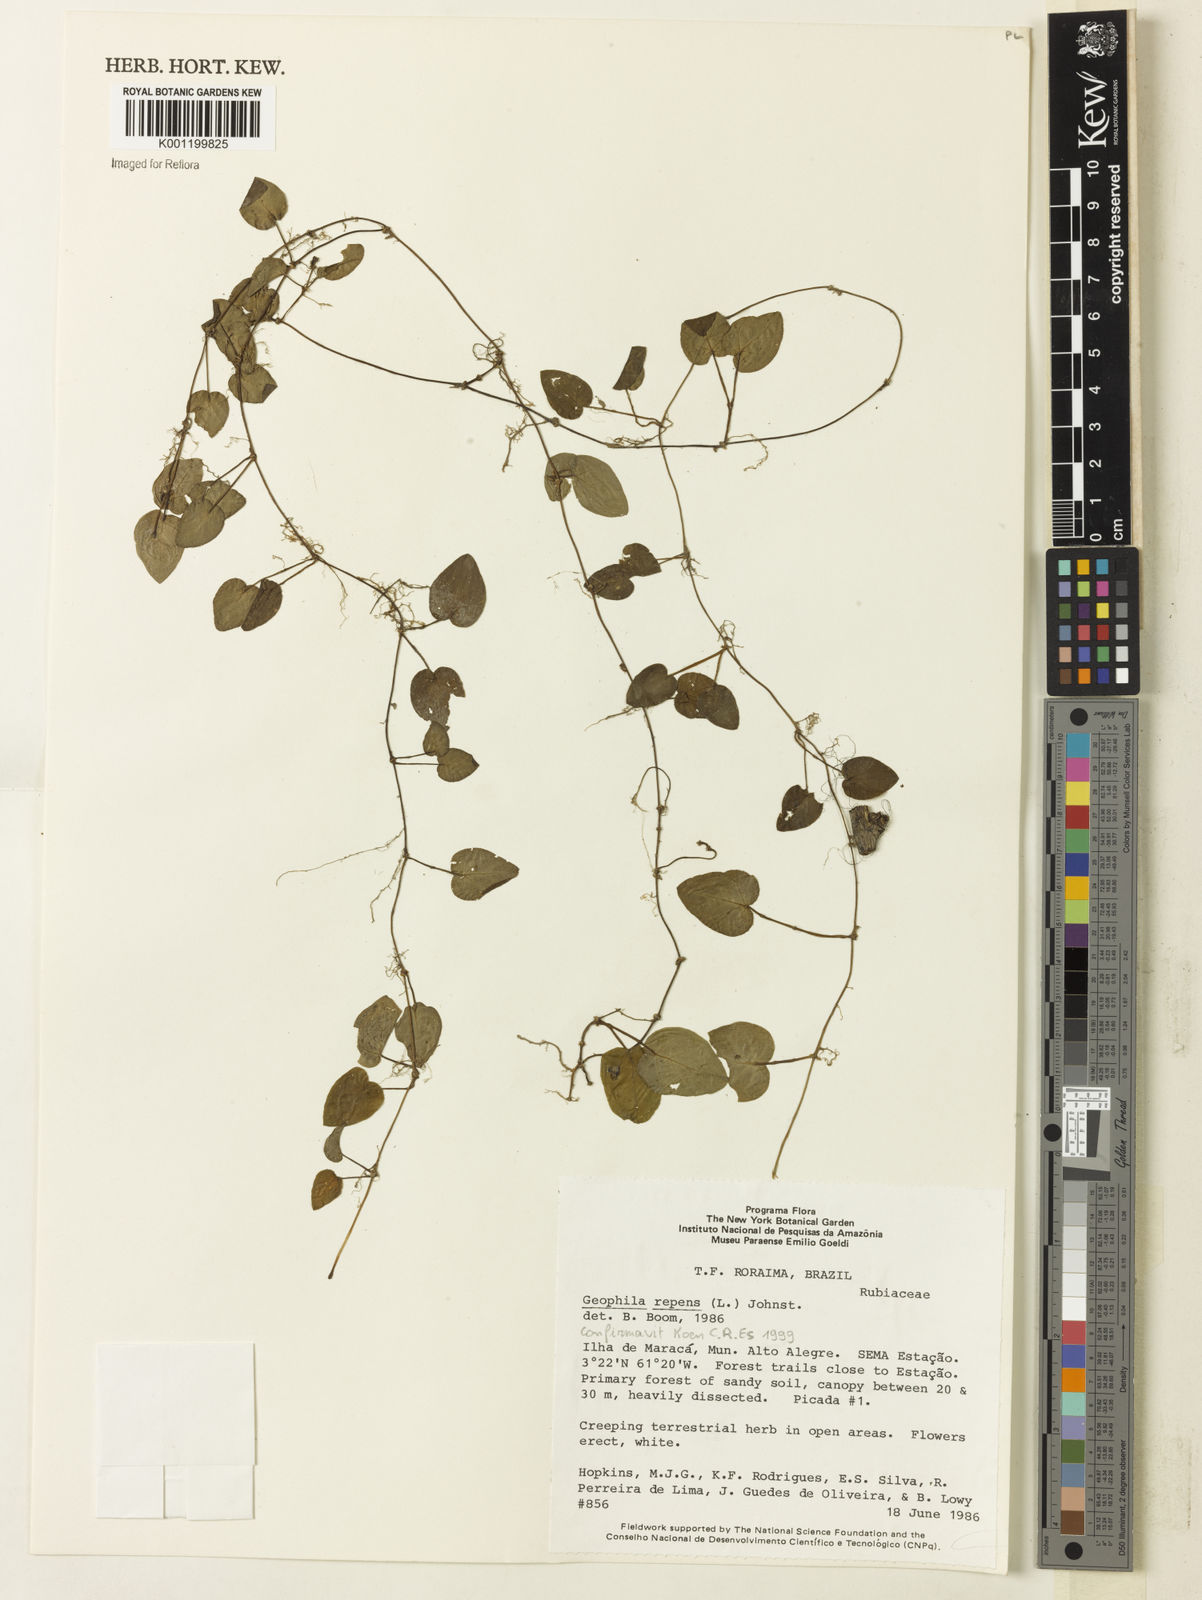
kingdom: Plantae
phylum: Tracheophyta
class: Magnoliopsida
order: Gentianales
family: Rubiaceae
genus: Geophila
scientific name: Geophila repens
